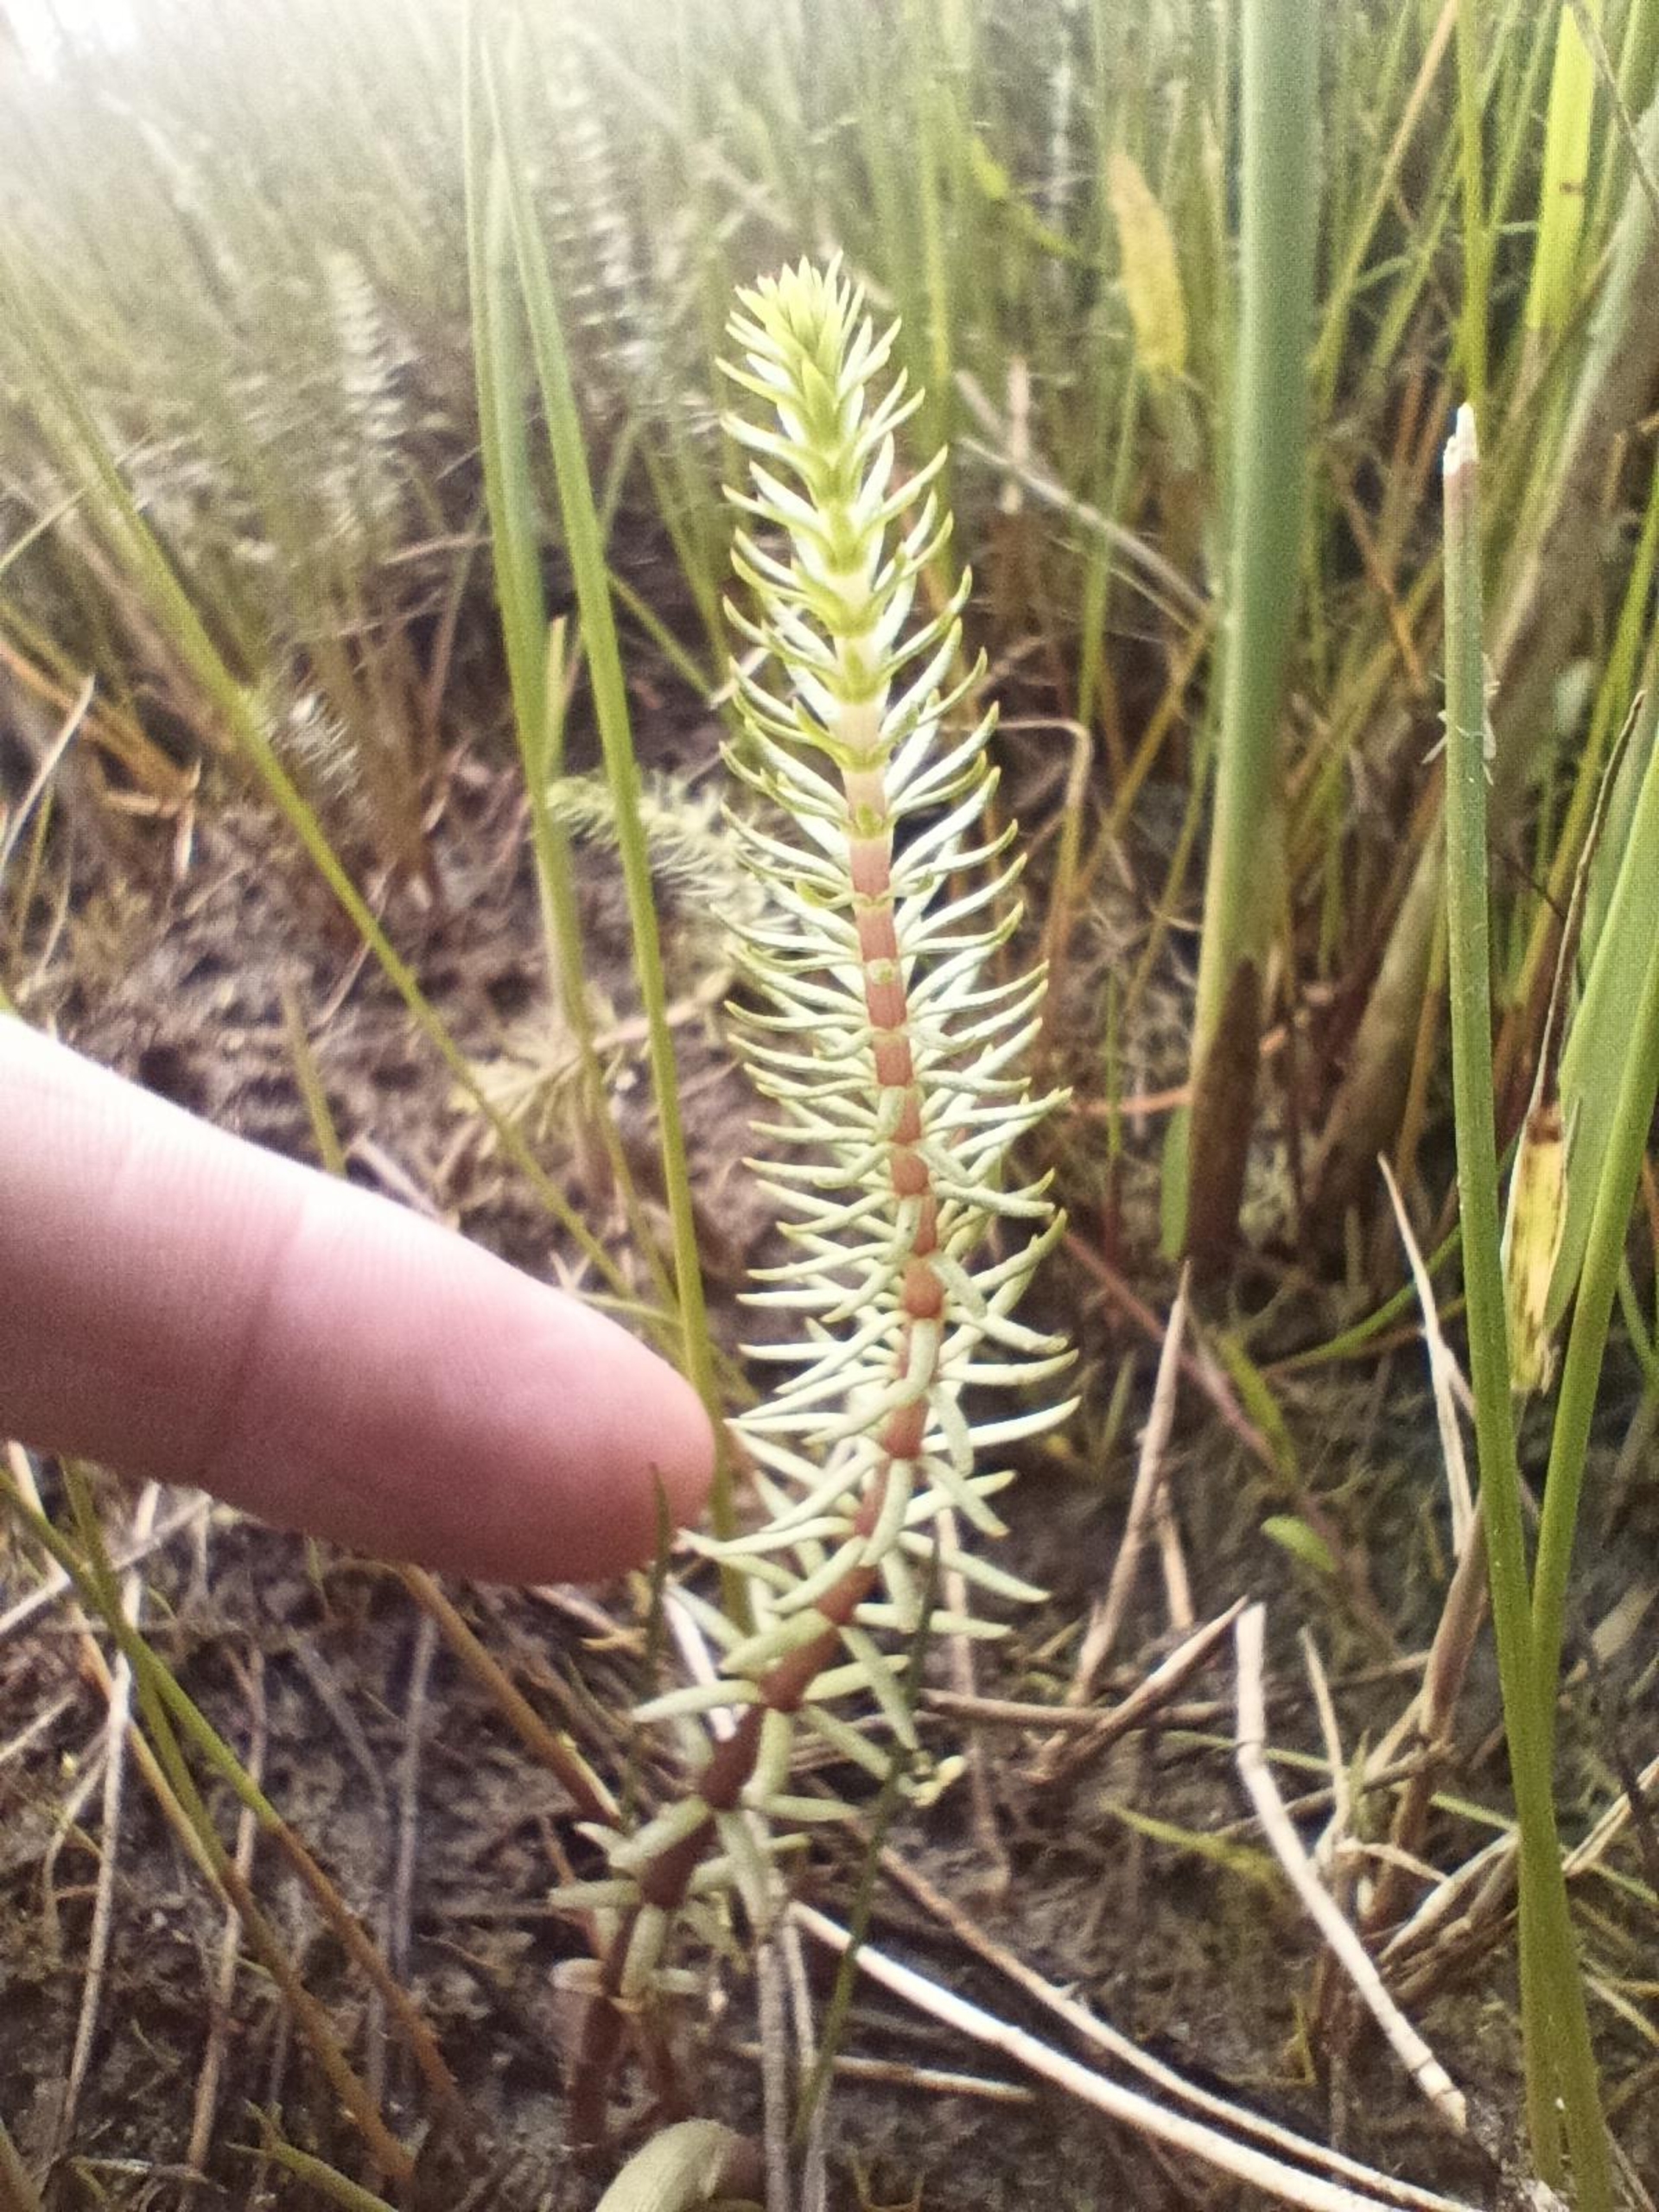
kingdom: Plantae
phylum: Tracheophyta
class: Magnoliopsida
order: Lamiales
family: Plantaginaceae
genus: Hippuris
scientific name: Hippuris vulgaris
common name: Vandspir
